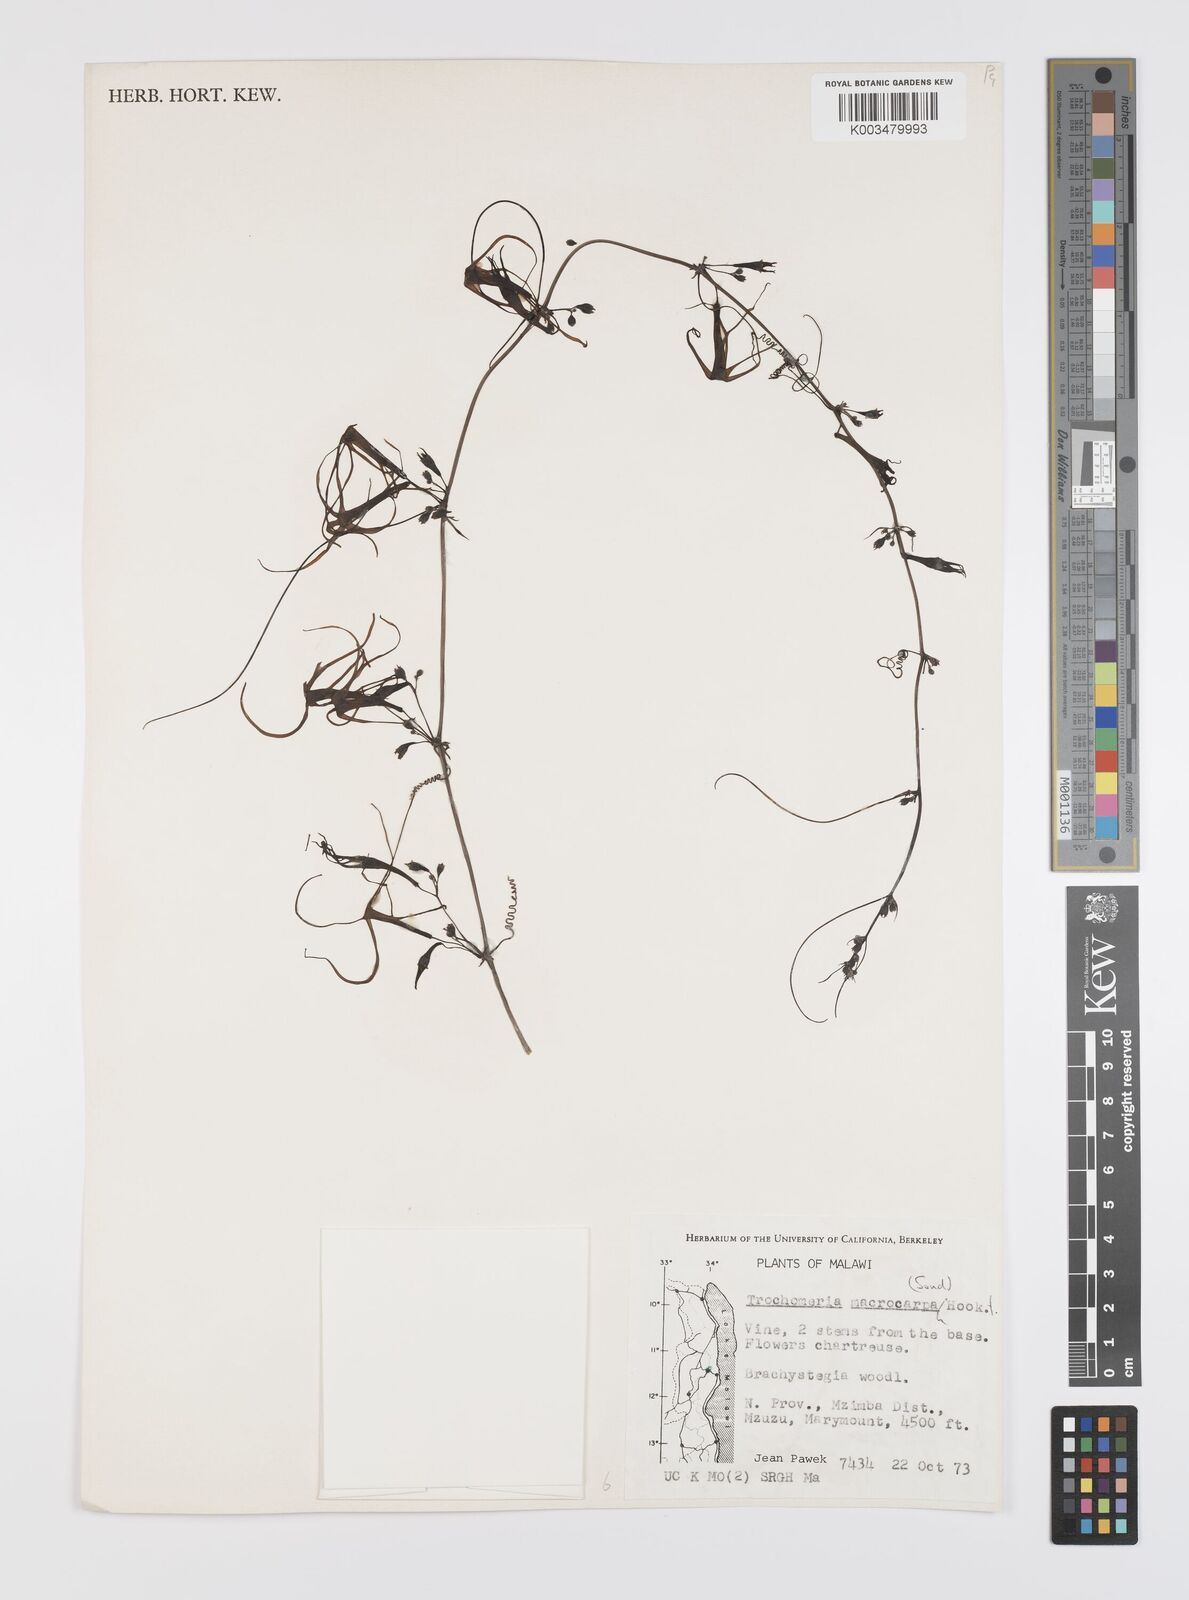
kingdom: Plantae
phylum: Tracheophyta
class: Magnoliopsida
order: Cucurbitales
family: Cucurbitaceae
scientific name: Cucurbitaceae
